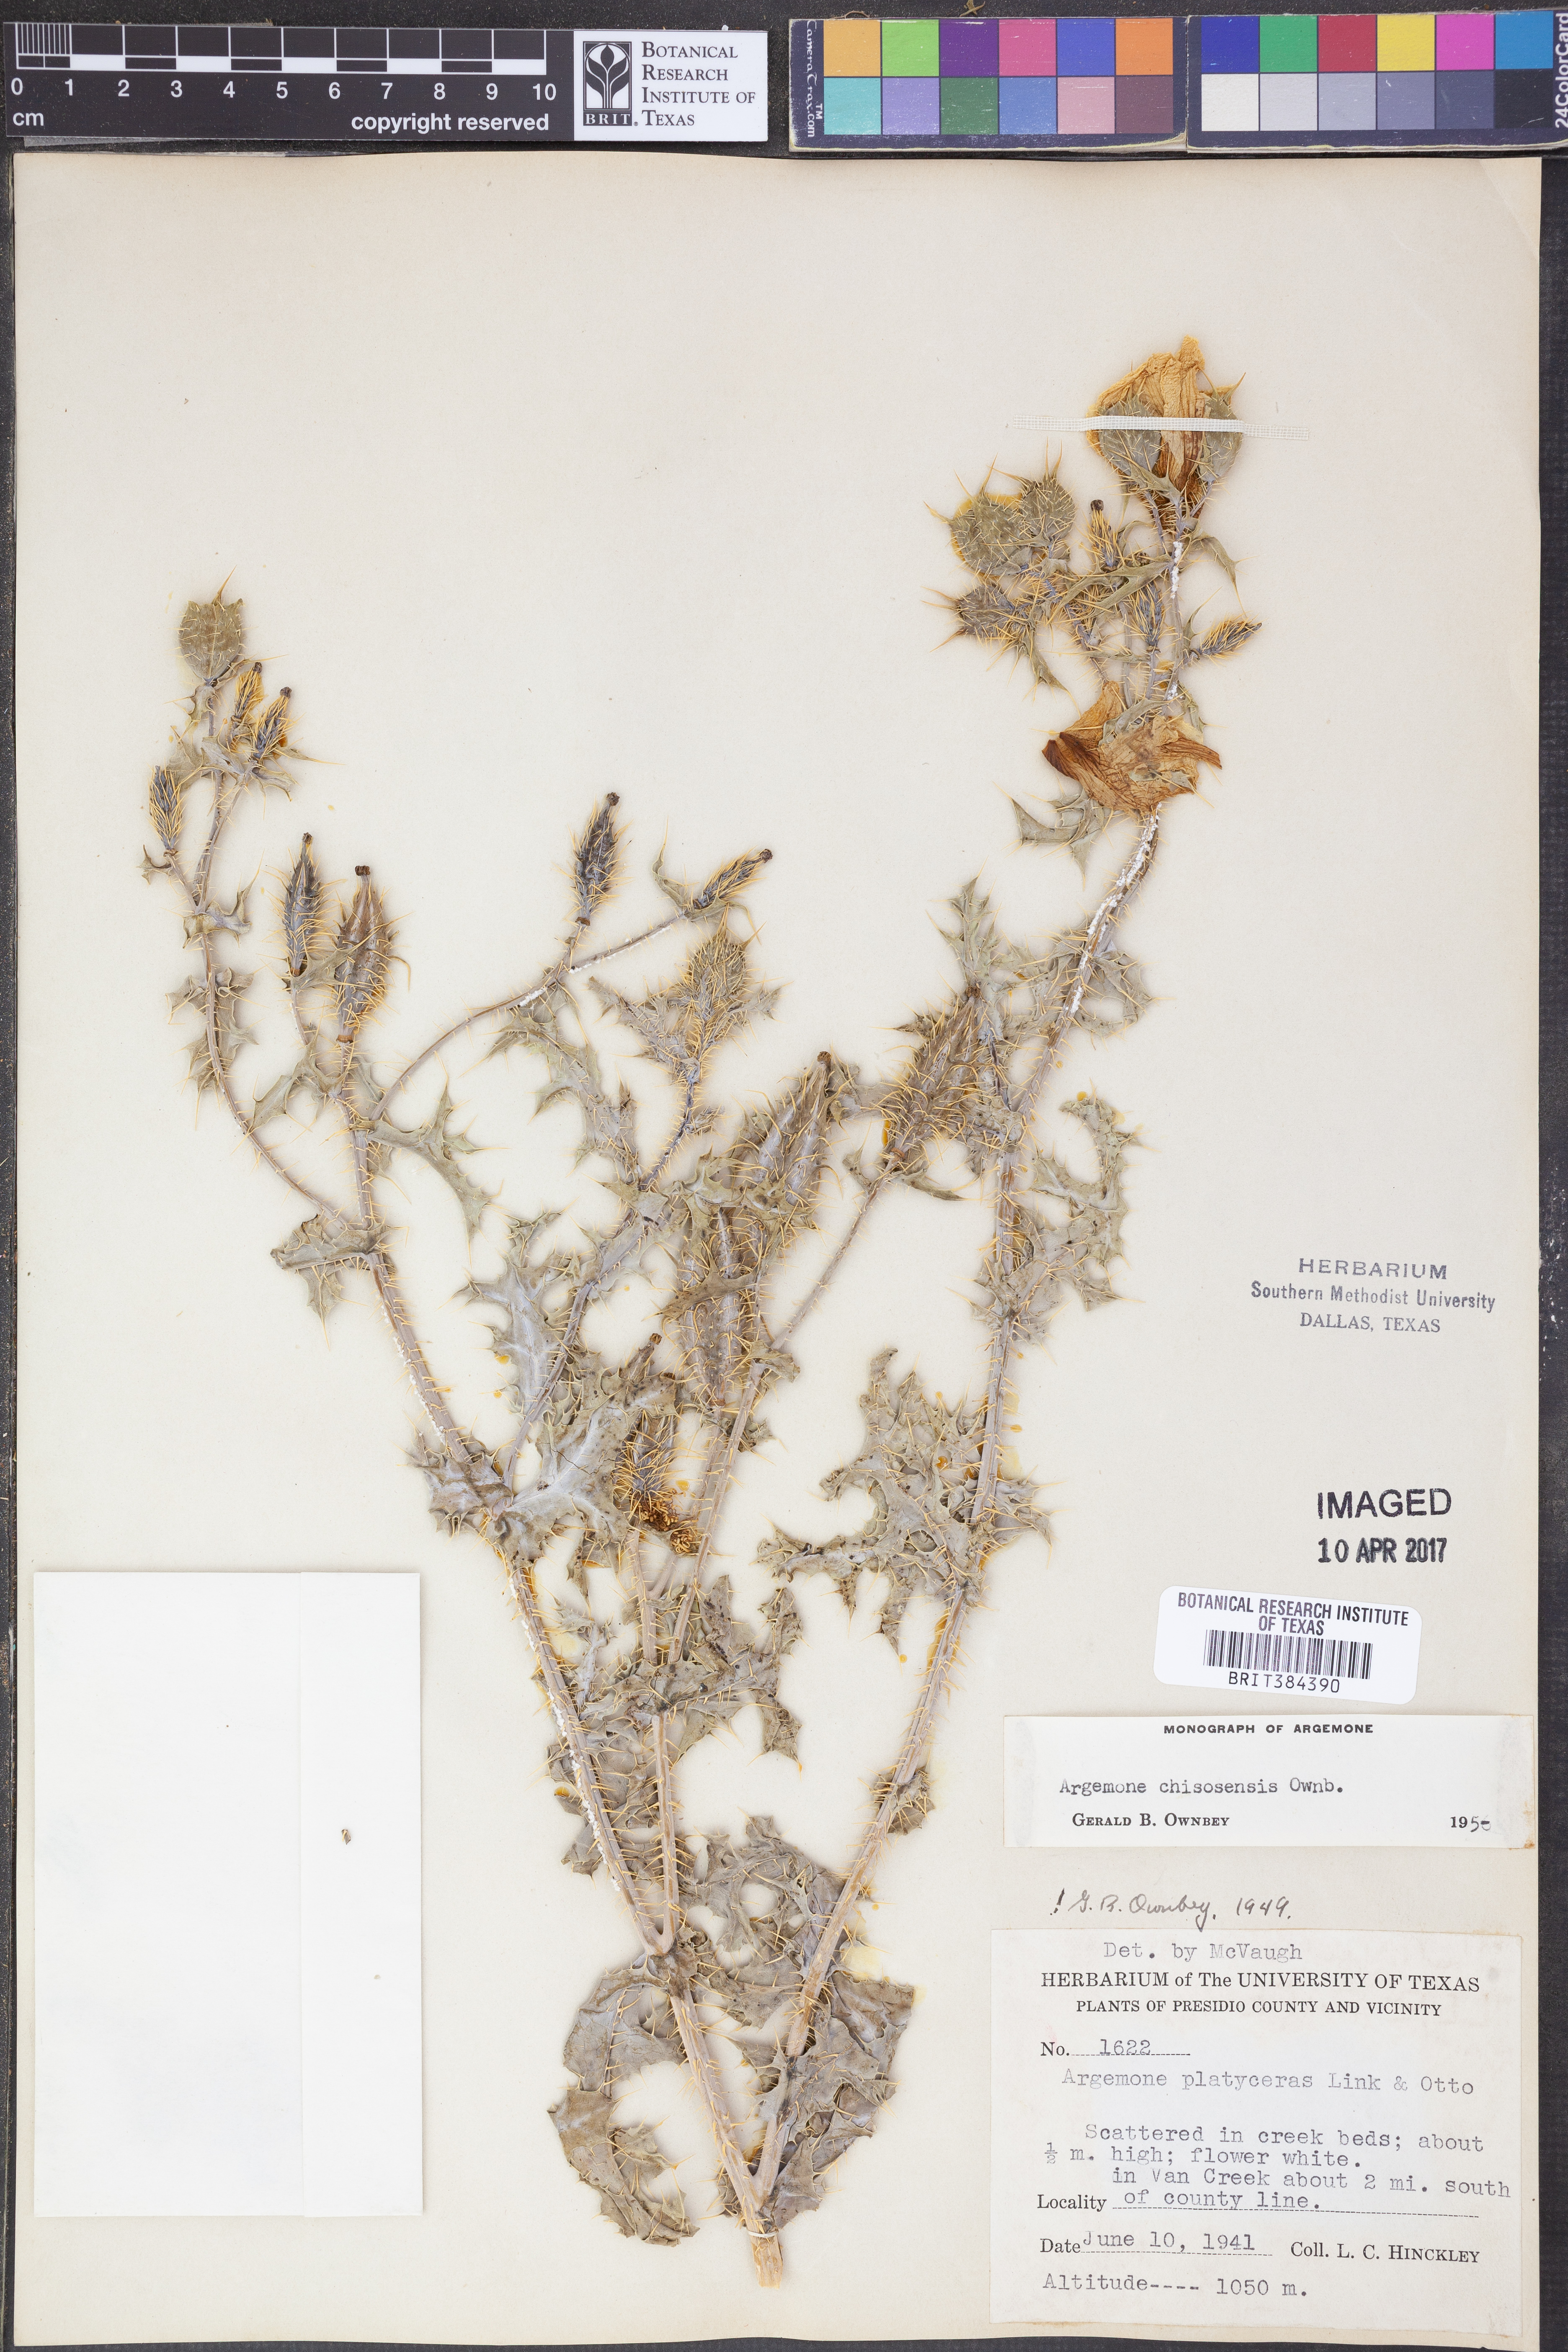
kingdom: Plantae
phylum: Tracheophyta
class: Magnoliopsida
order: Ranunculales
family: Papaveraceae
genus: Argemone
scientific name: Argemone chisosensis
